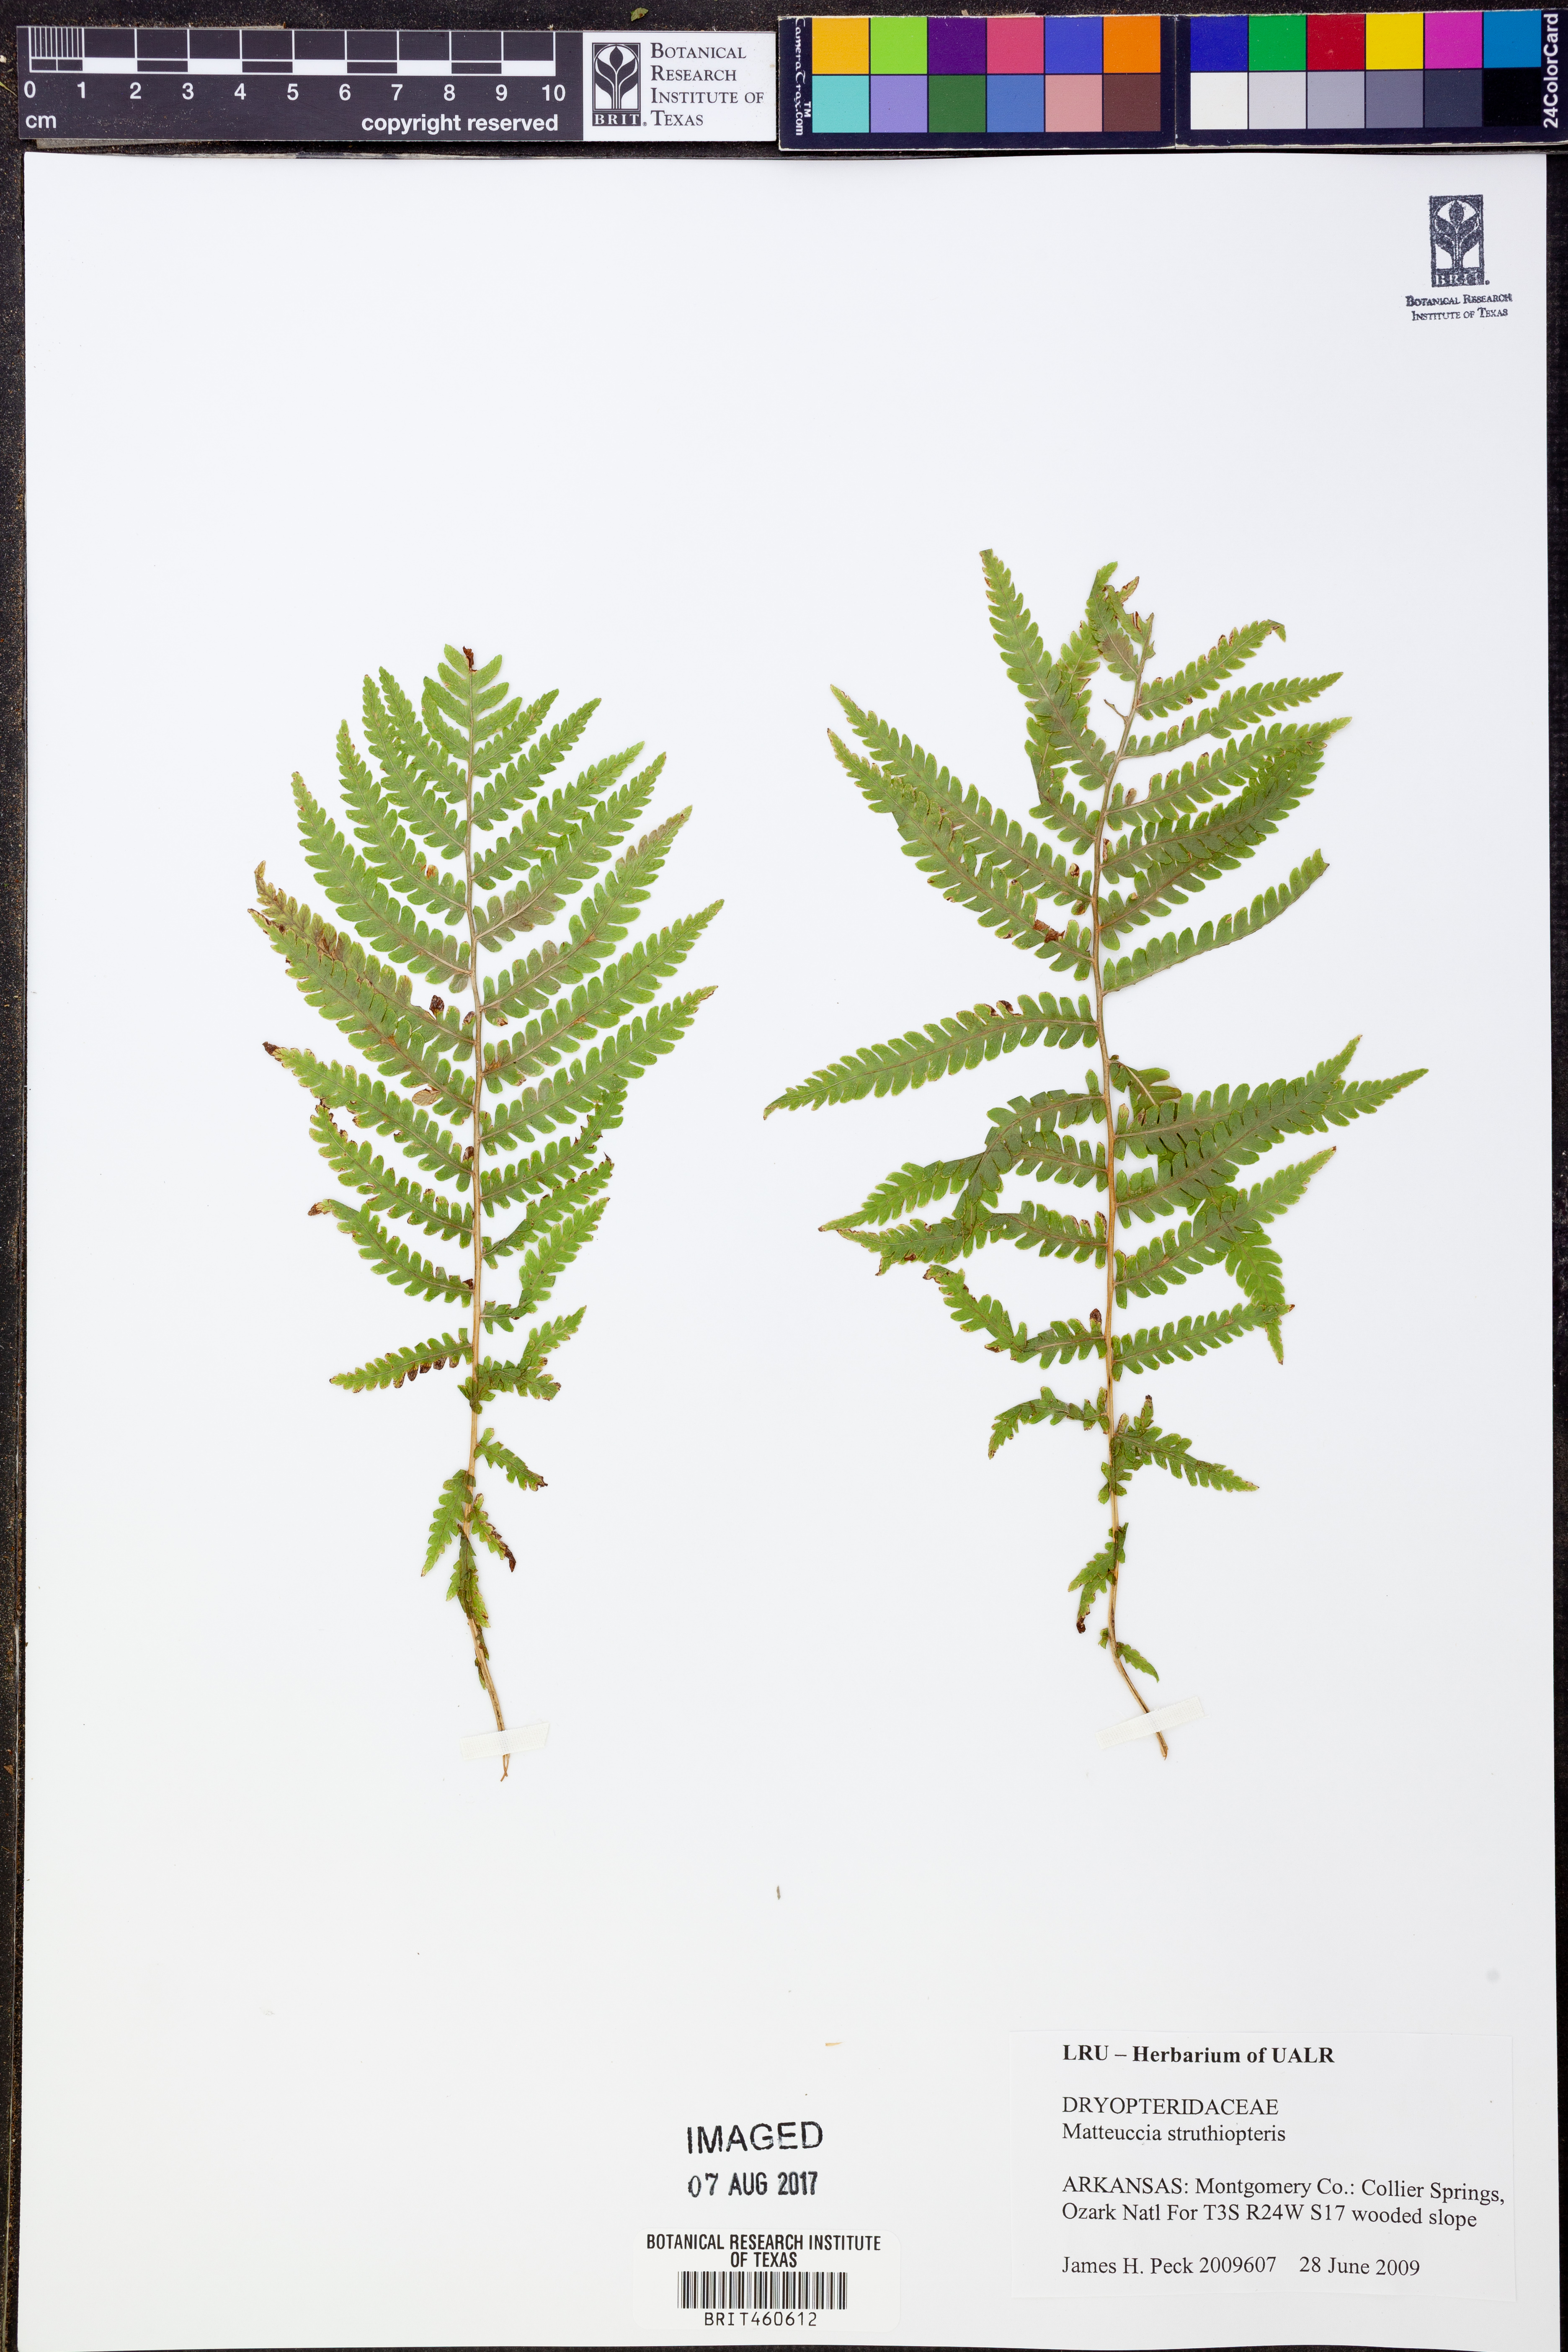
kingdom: Plantae
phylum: Tracheophyta
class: Polypodiopsida
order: Polypodiales
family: Onocleaceae
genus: Matteuccia
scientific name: Matteuccia struthiopteris
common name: Ostrich fern
